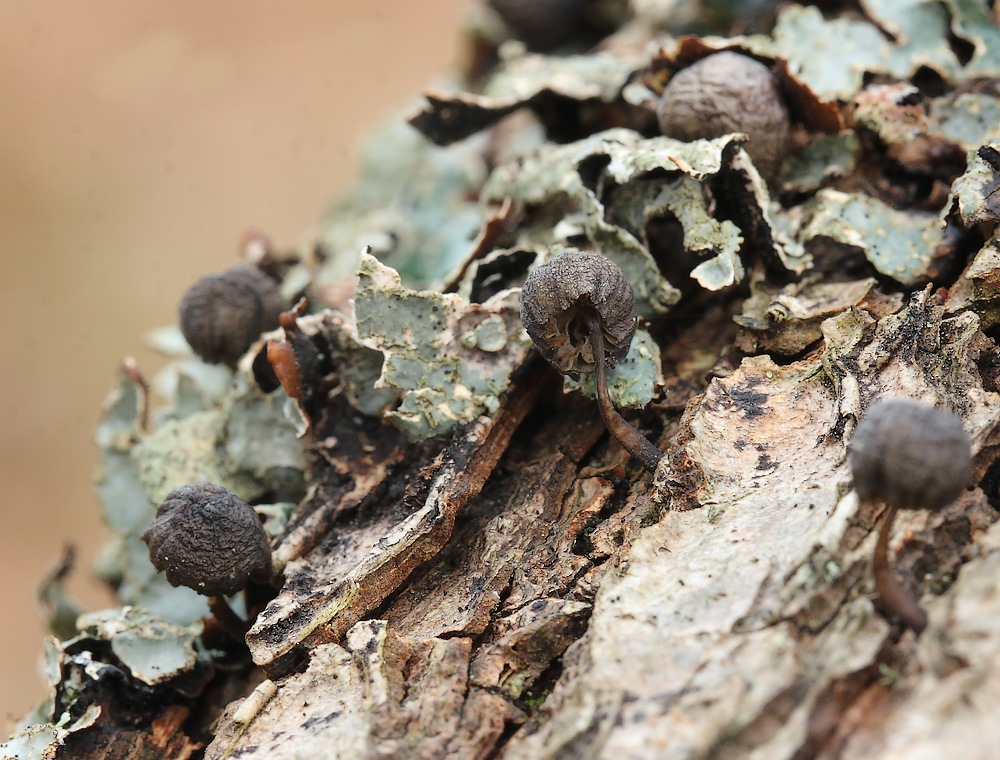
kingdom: Fungi
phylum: Basidiomycota
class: Agaricomycetes
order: Agaricales
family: Mycenaceae
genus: Mycena
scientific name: Mycena
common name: huesvamp
